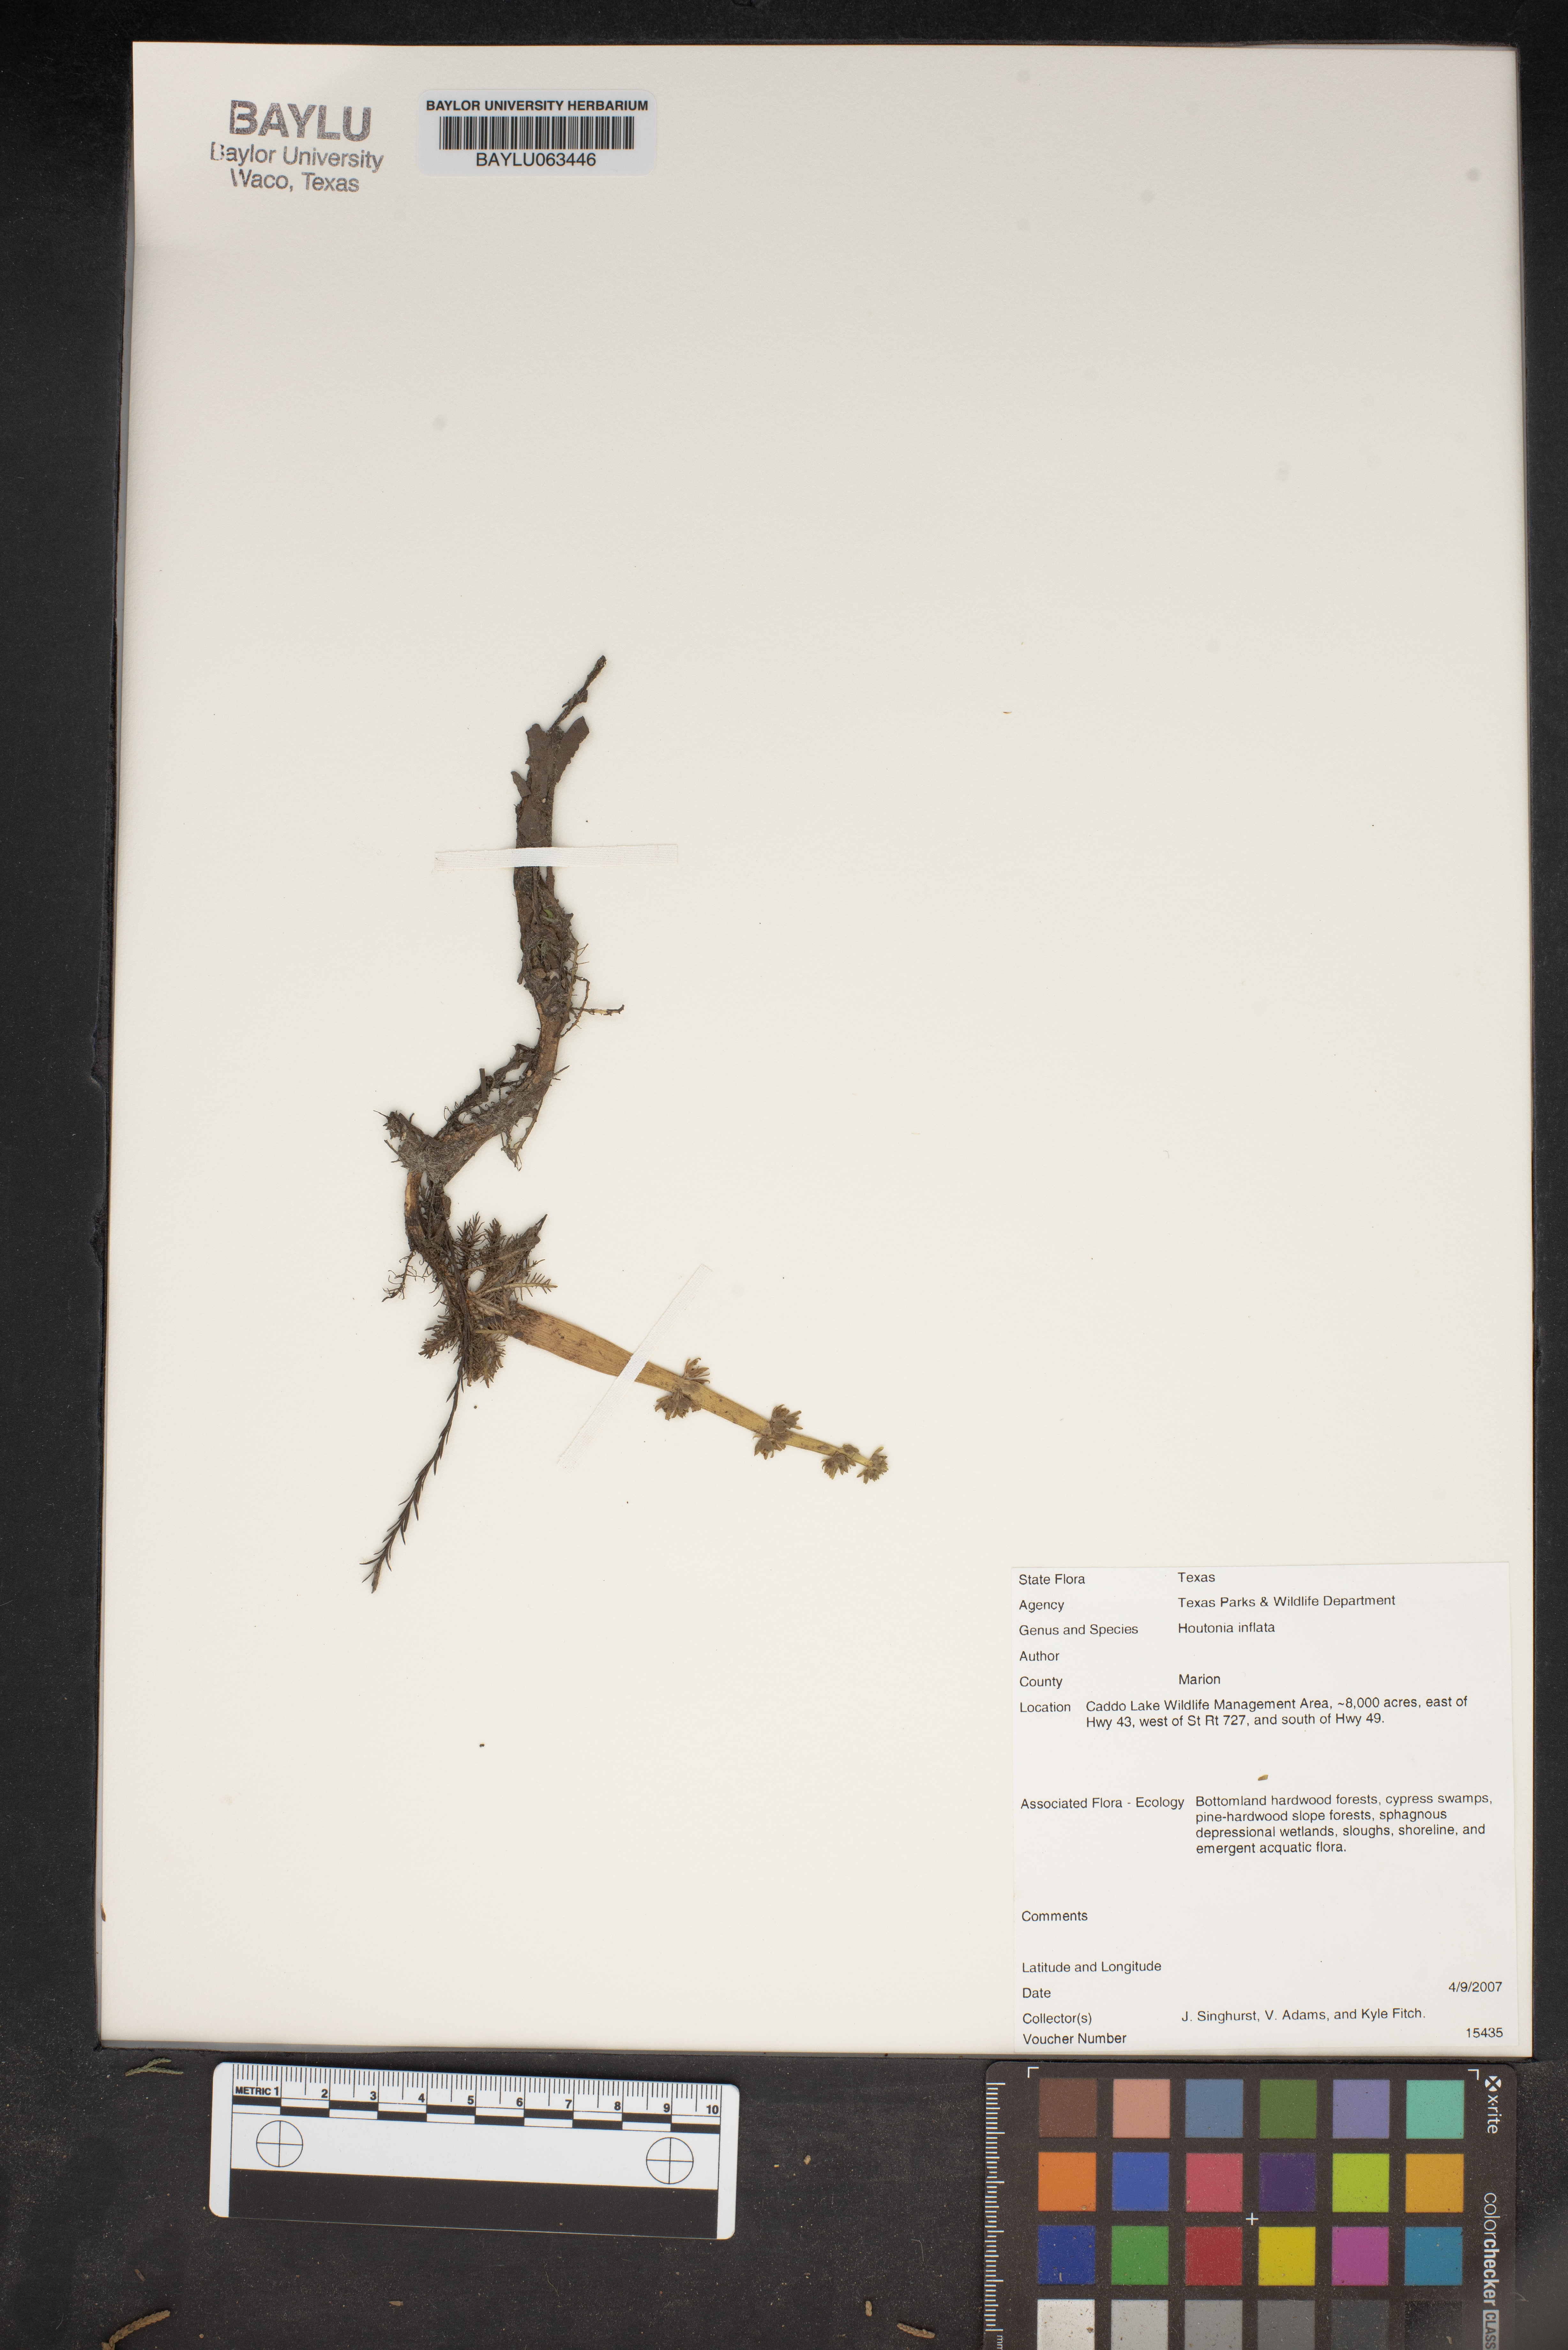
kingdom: Plantae
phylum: Tracheophyta
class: Magnoliopsida
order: Ericales
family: Primulaceae
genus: Hottonia
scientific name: Hottonia inflata
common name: American featherfoil
